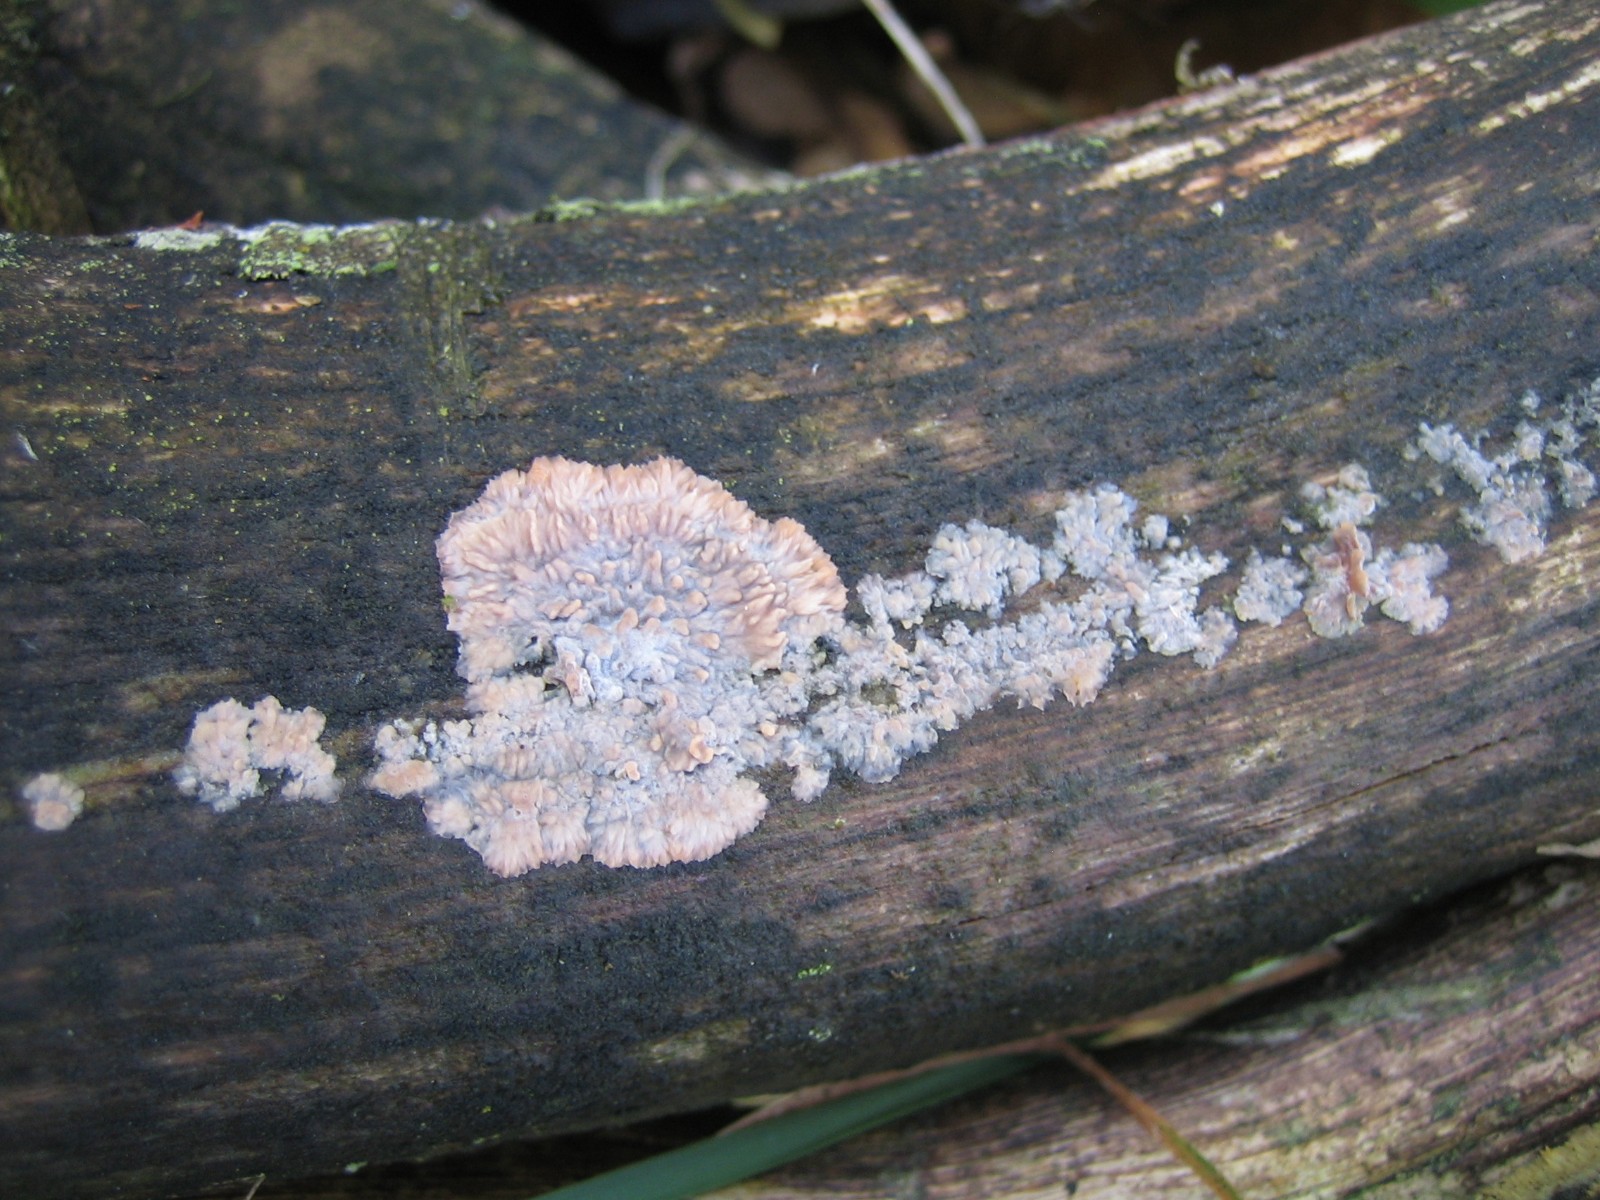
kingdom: Fungi
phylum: Basidiomycota
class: Agaricomycetes
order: Polyporales
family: Meruliaceae
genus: Phlebia
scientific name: Phlebia radiata
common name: stråle-åresvamp
